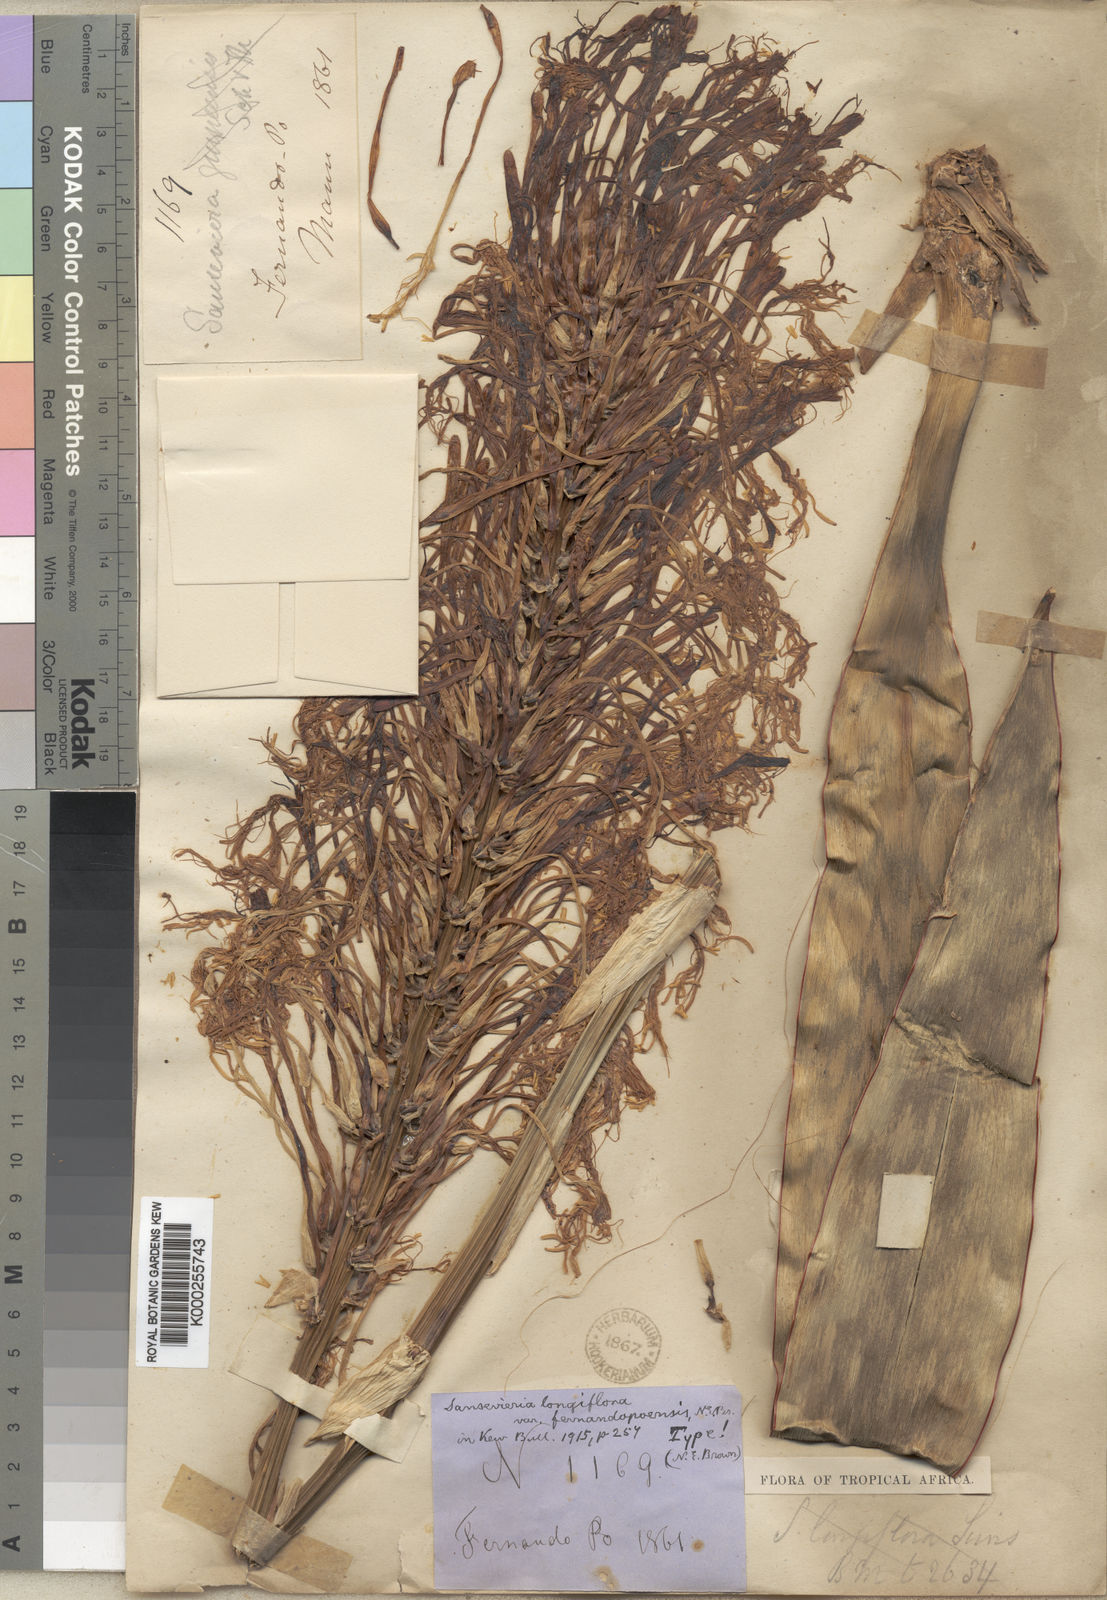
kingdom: Plantae
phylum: Tracheophyta
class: Liliopsida
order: Asparagales
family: Asparagaceae
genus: Dracaena
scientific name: Dracaena longiflora
